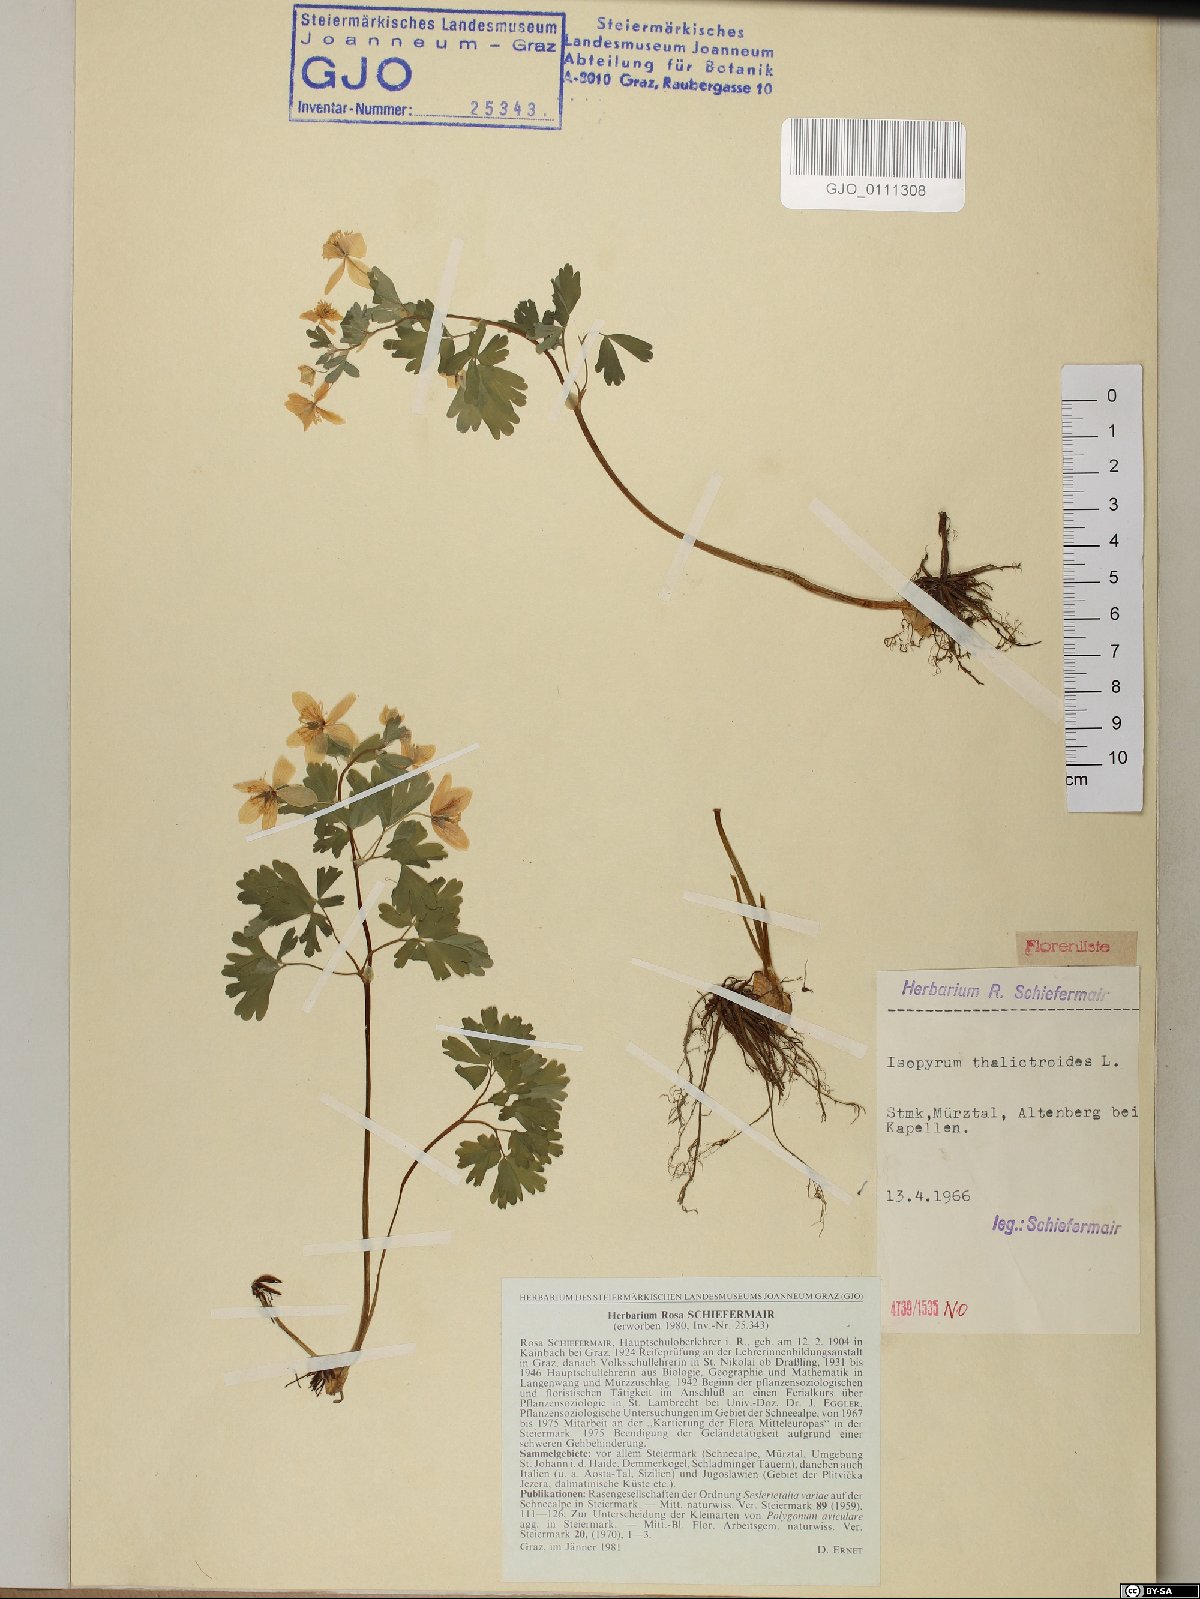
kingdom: Plantae
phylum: Tracheophyta
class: Magnoliopsida
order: Ranunculales
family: Ranunculaceae
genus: Isopyrum
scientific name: Isopyrum thalictroides
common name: Isopyrum
